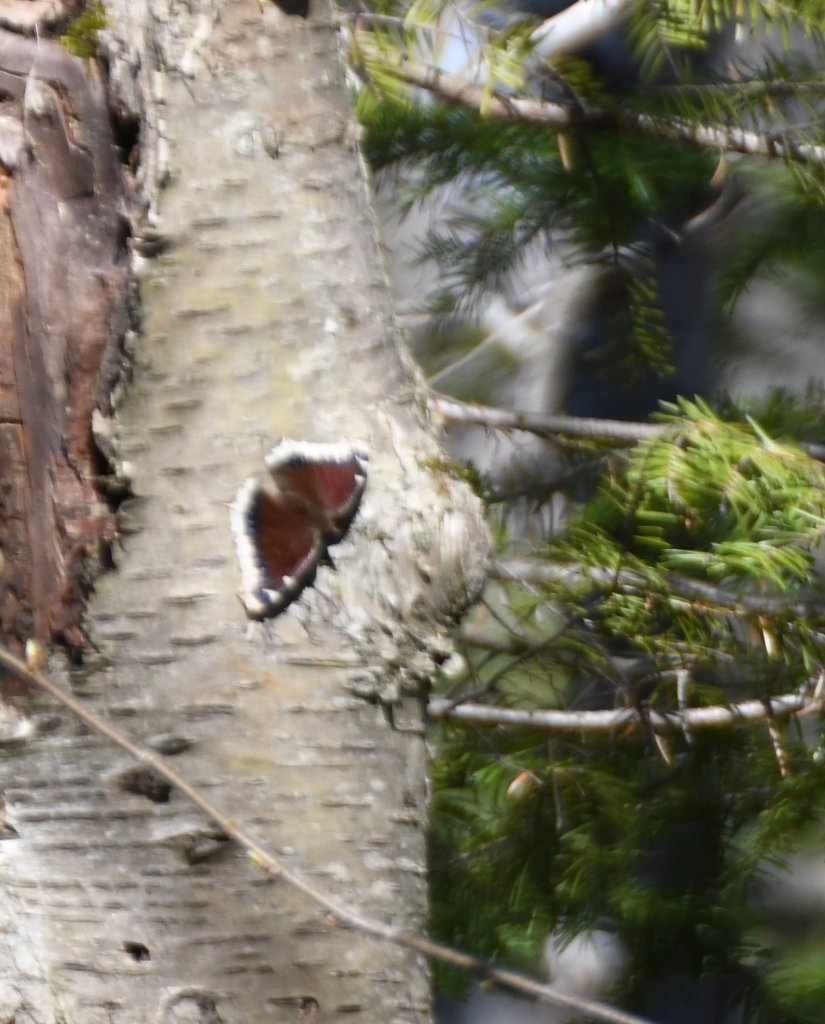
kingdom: Animalia
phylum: Arthropoda
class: Insecta
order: Lepidoptera
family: Nymphalidae
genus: Nymphalis
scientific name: Nymphalis antiopa
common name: Mourning Cloak
